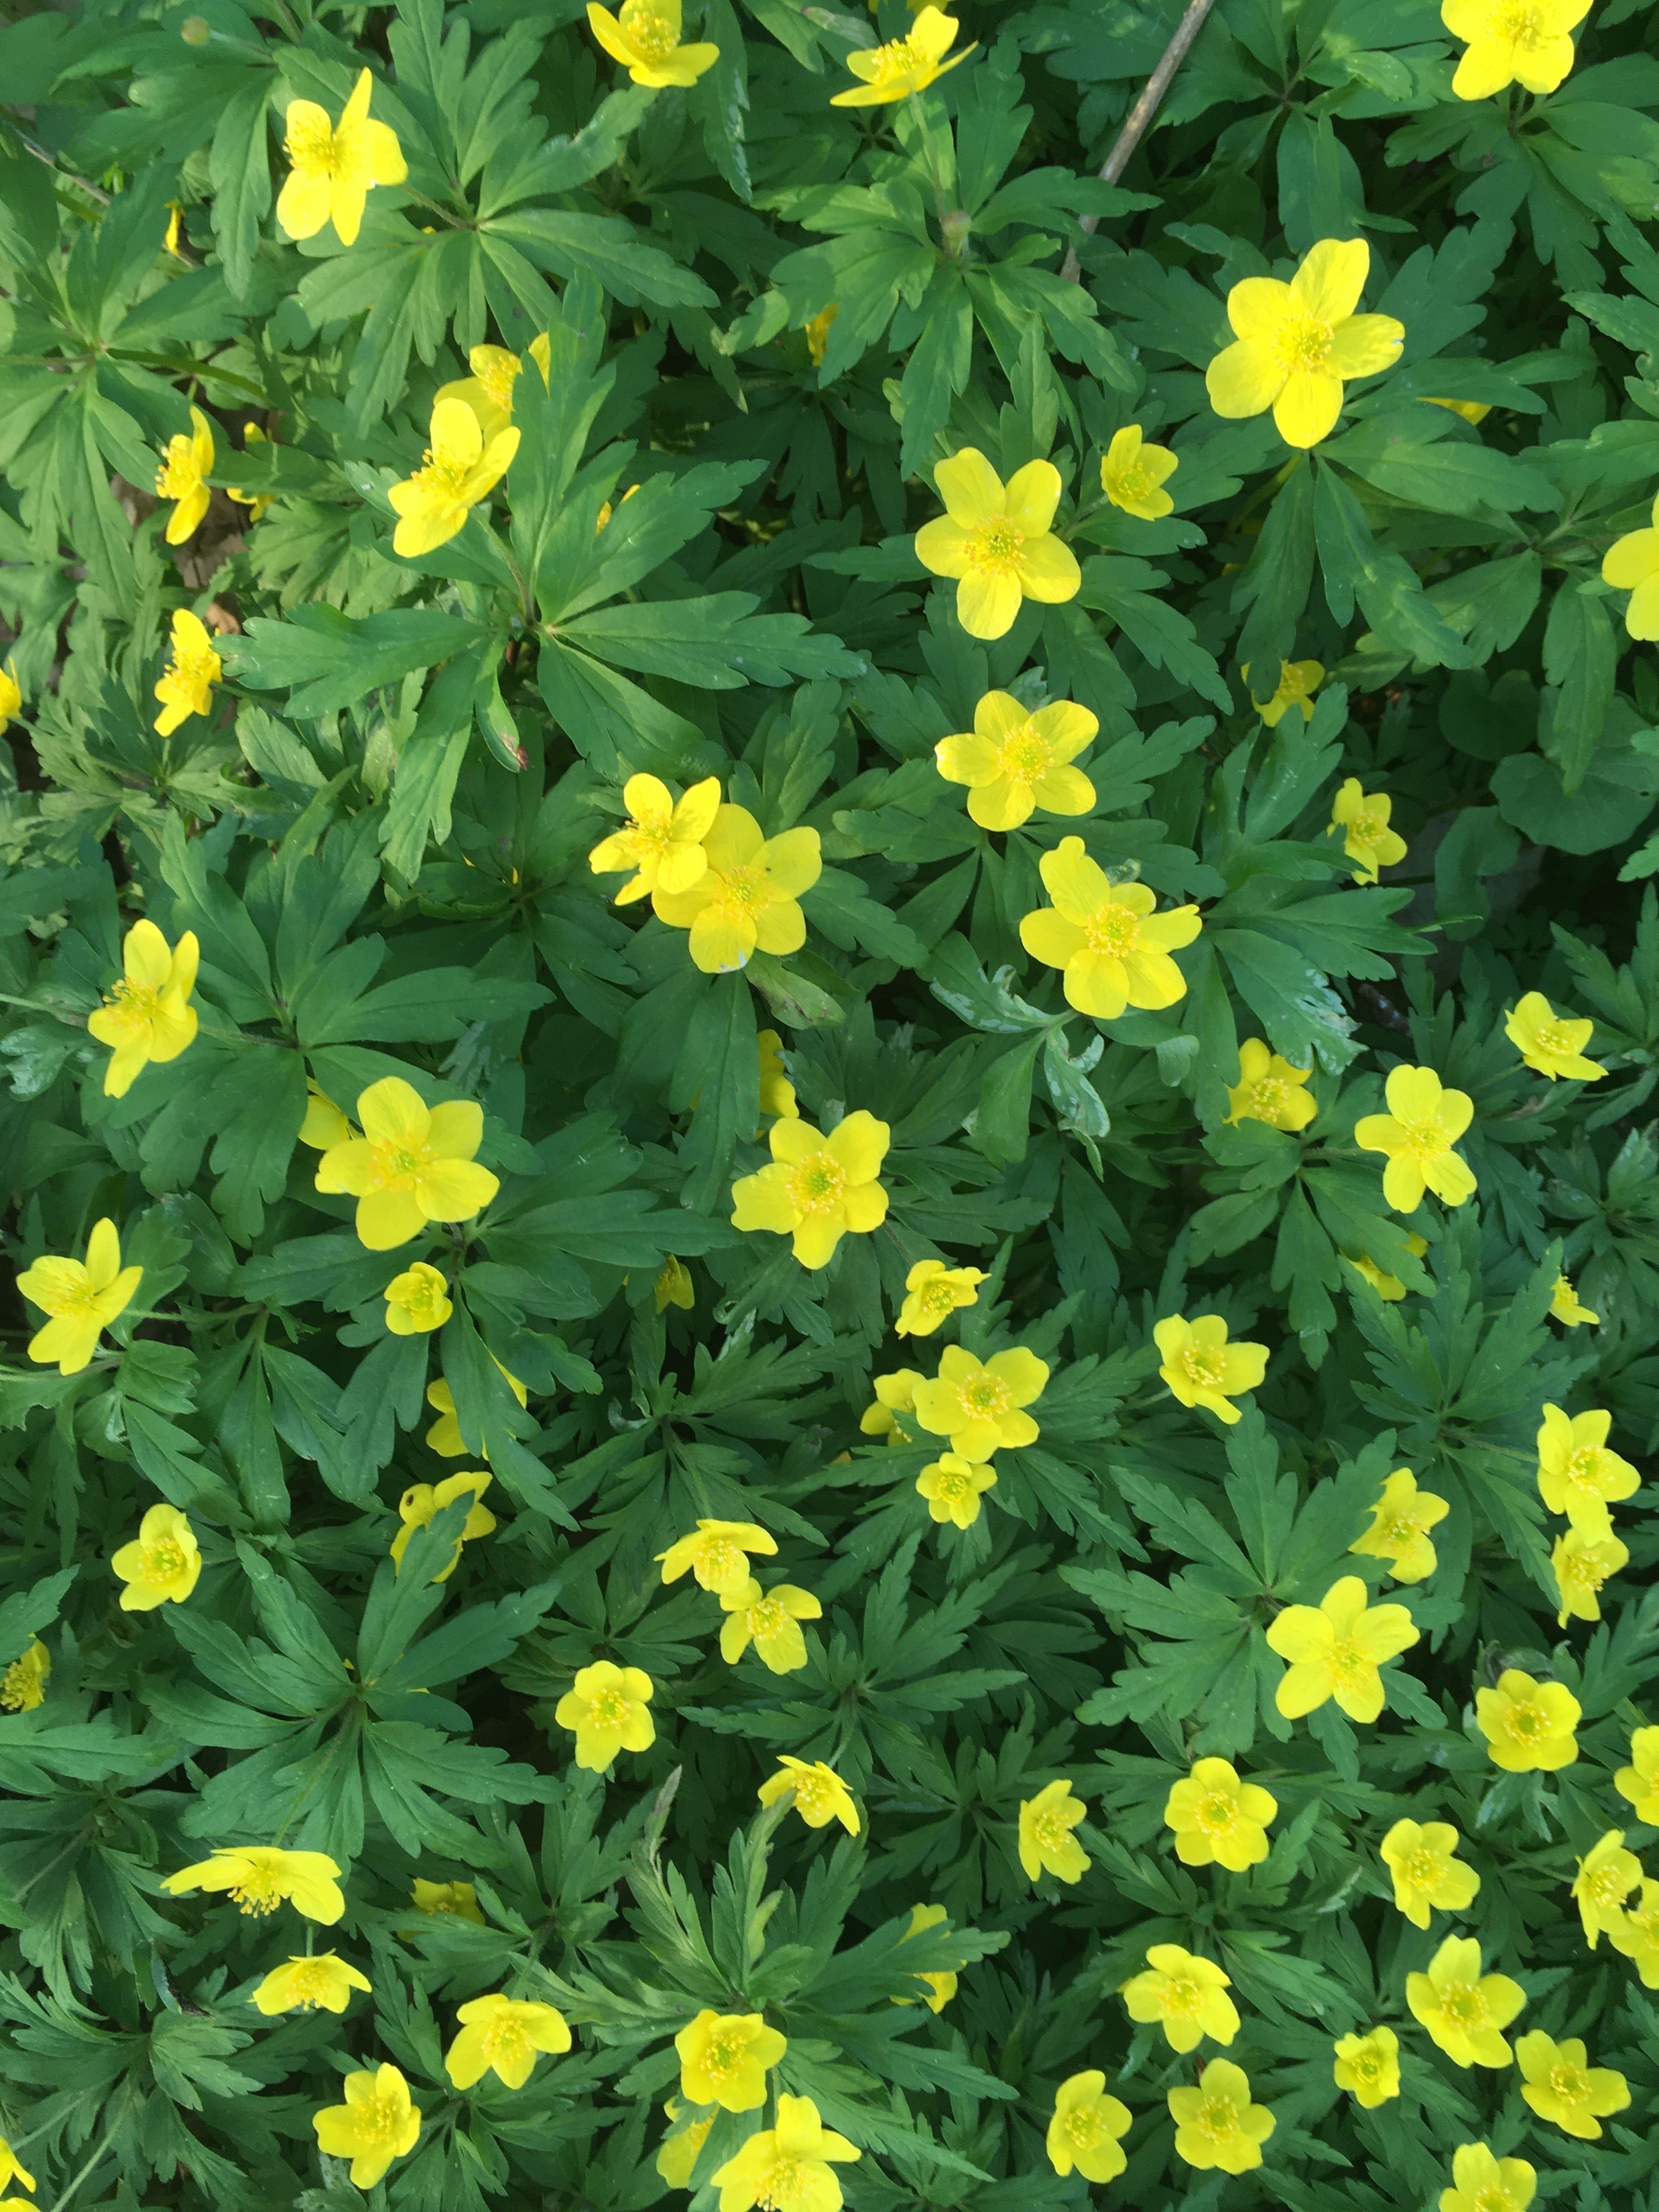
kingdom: Plantae
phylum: Tracheophyta
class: Magnoliopsida
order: Ranunculales
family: Ranunculaceae
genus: Anemone
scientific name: Anemone ranunculoides
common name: Gul anemone
